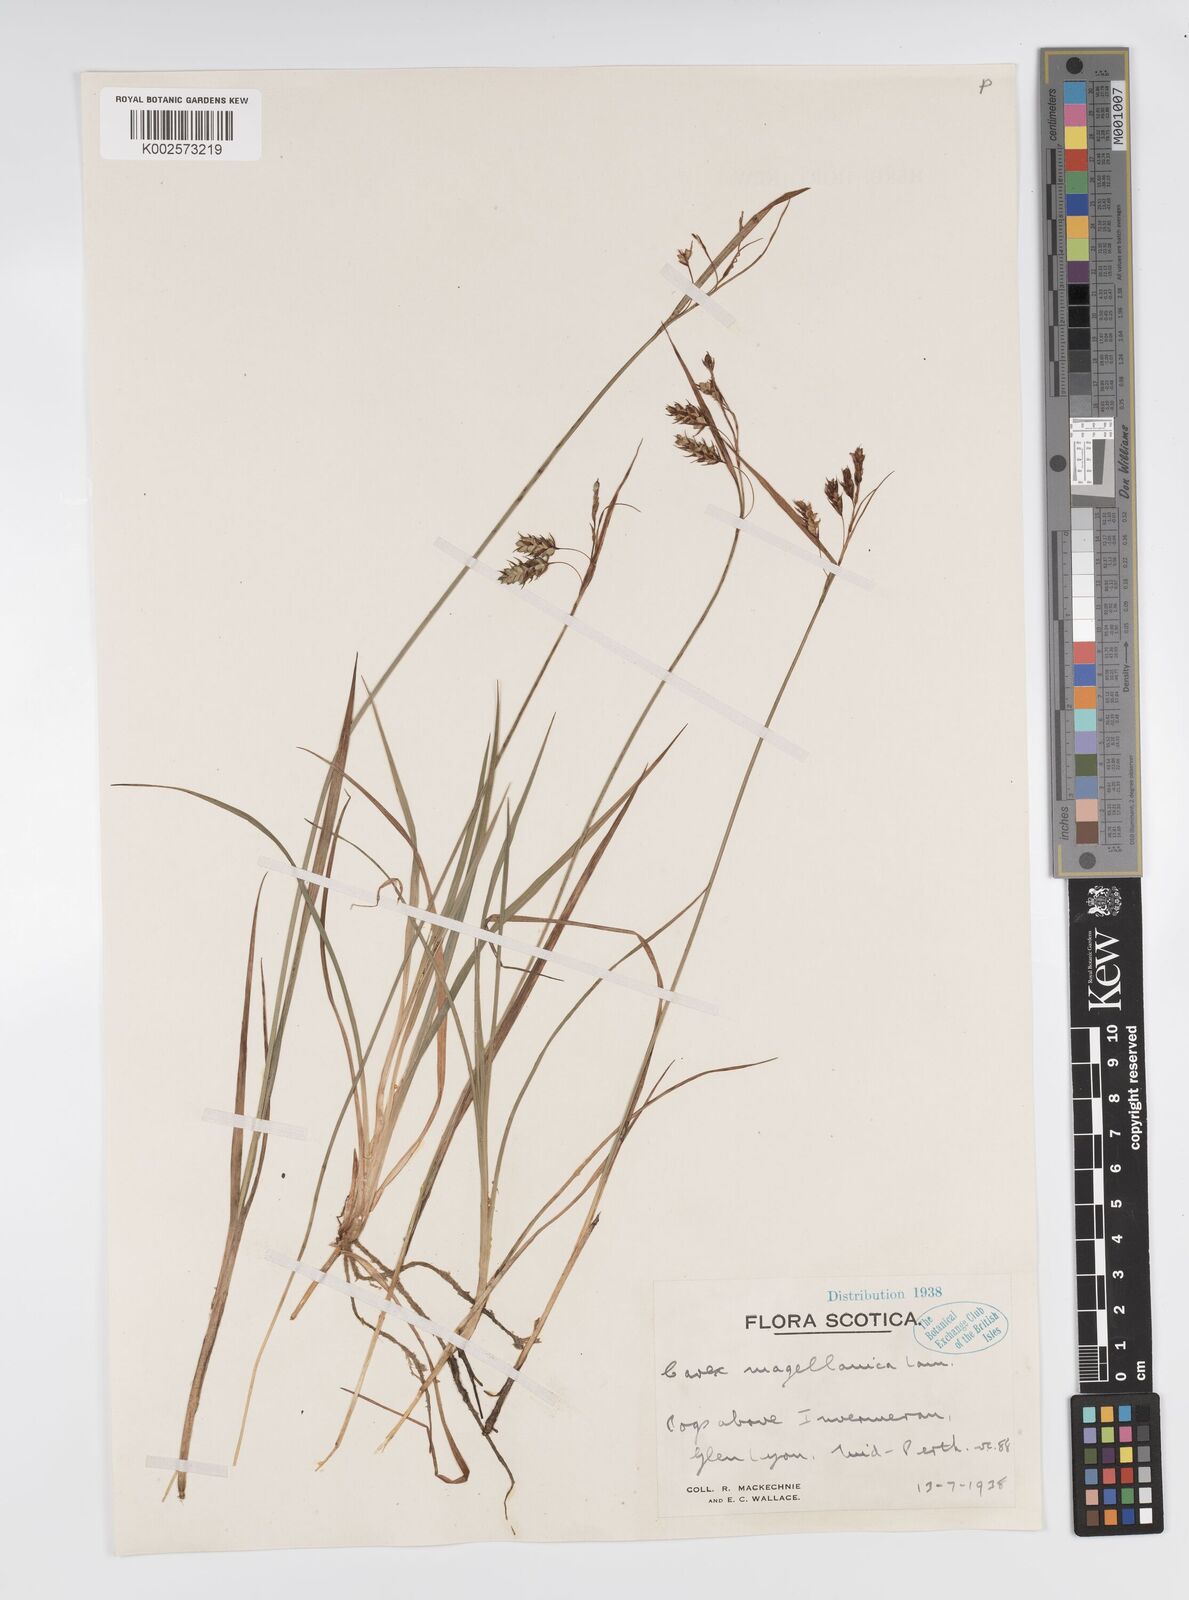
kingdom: Plantae
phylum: Tracheophyta
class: Liliopsida
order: Poales
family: Cyperaceae
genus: Carex
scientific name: Carex magellanica
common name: Bog sedge
